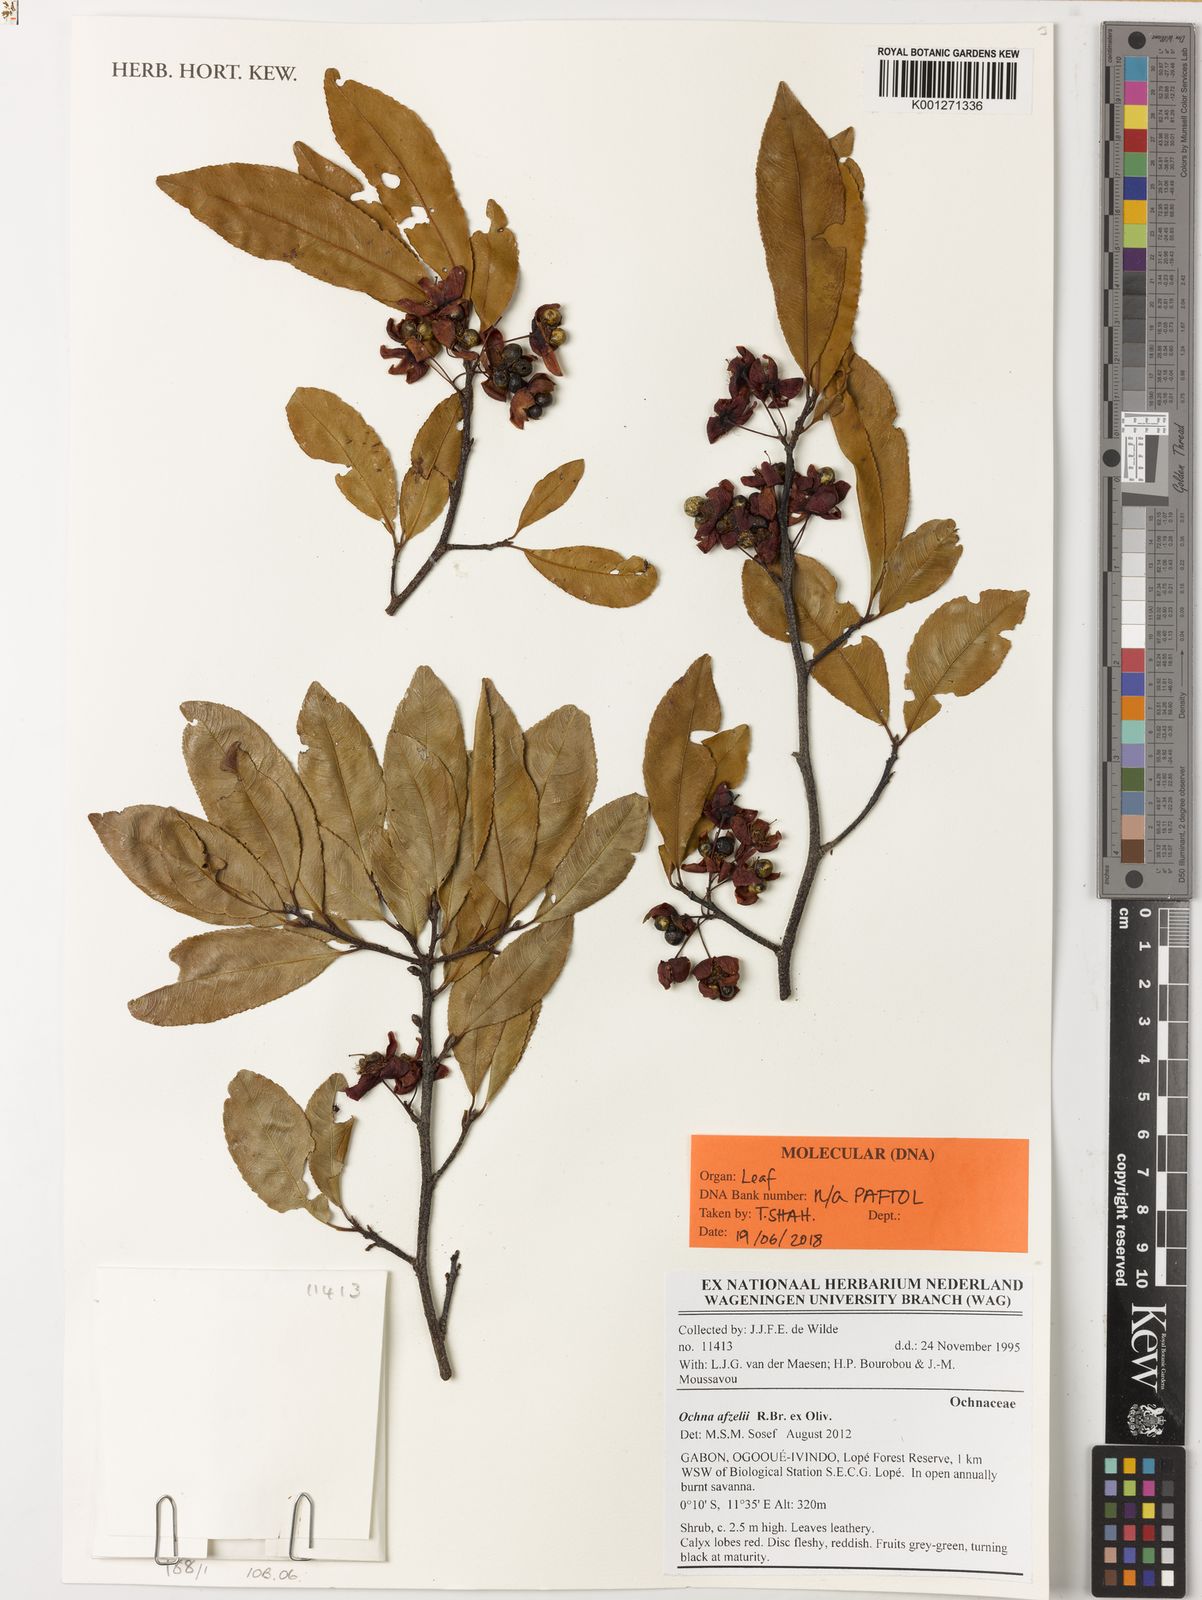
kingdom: Plantae
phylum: Tracheophyta
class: Magnoliopsida
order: Malpighiales
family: Ochnaceae
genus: Ochna
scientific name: Ochna afzelii
